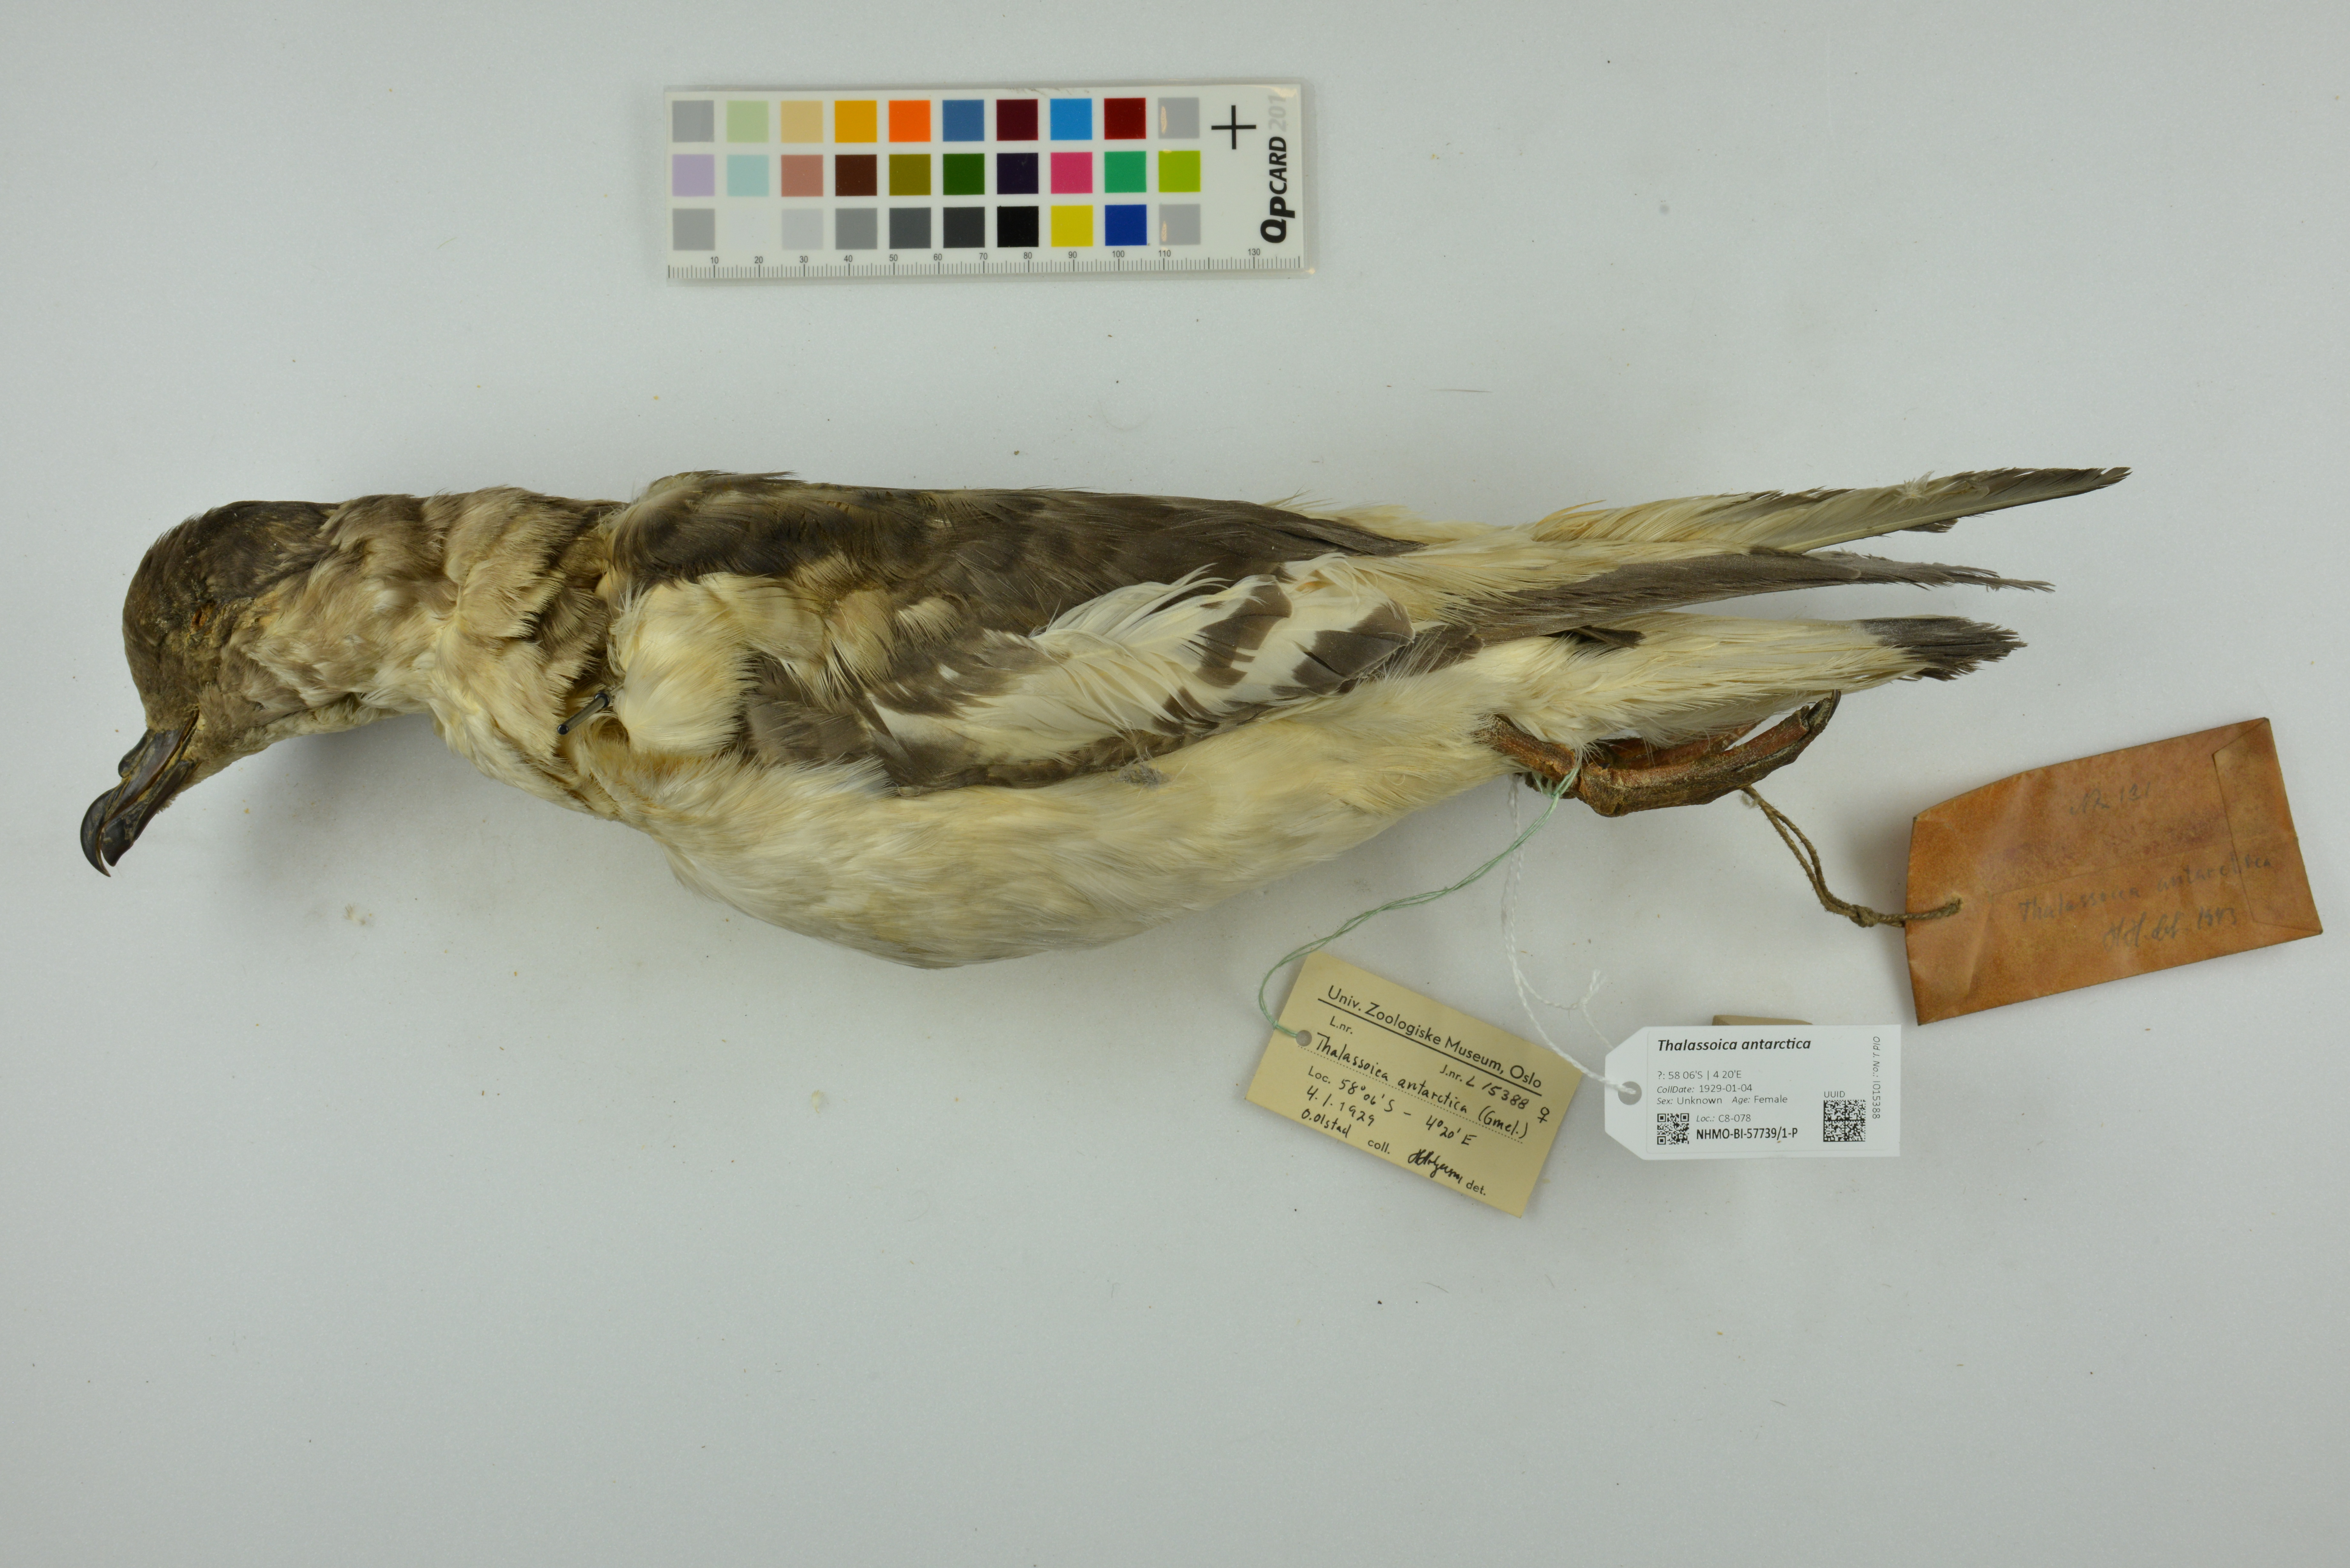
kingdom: Animalia
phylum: Chordata
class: Aves
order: Procellariiformes
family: Procellariidae
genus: Thalassoica
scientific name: Thalassoica antarctica
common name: Antarctic petrel
